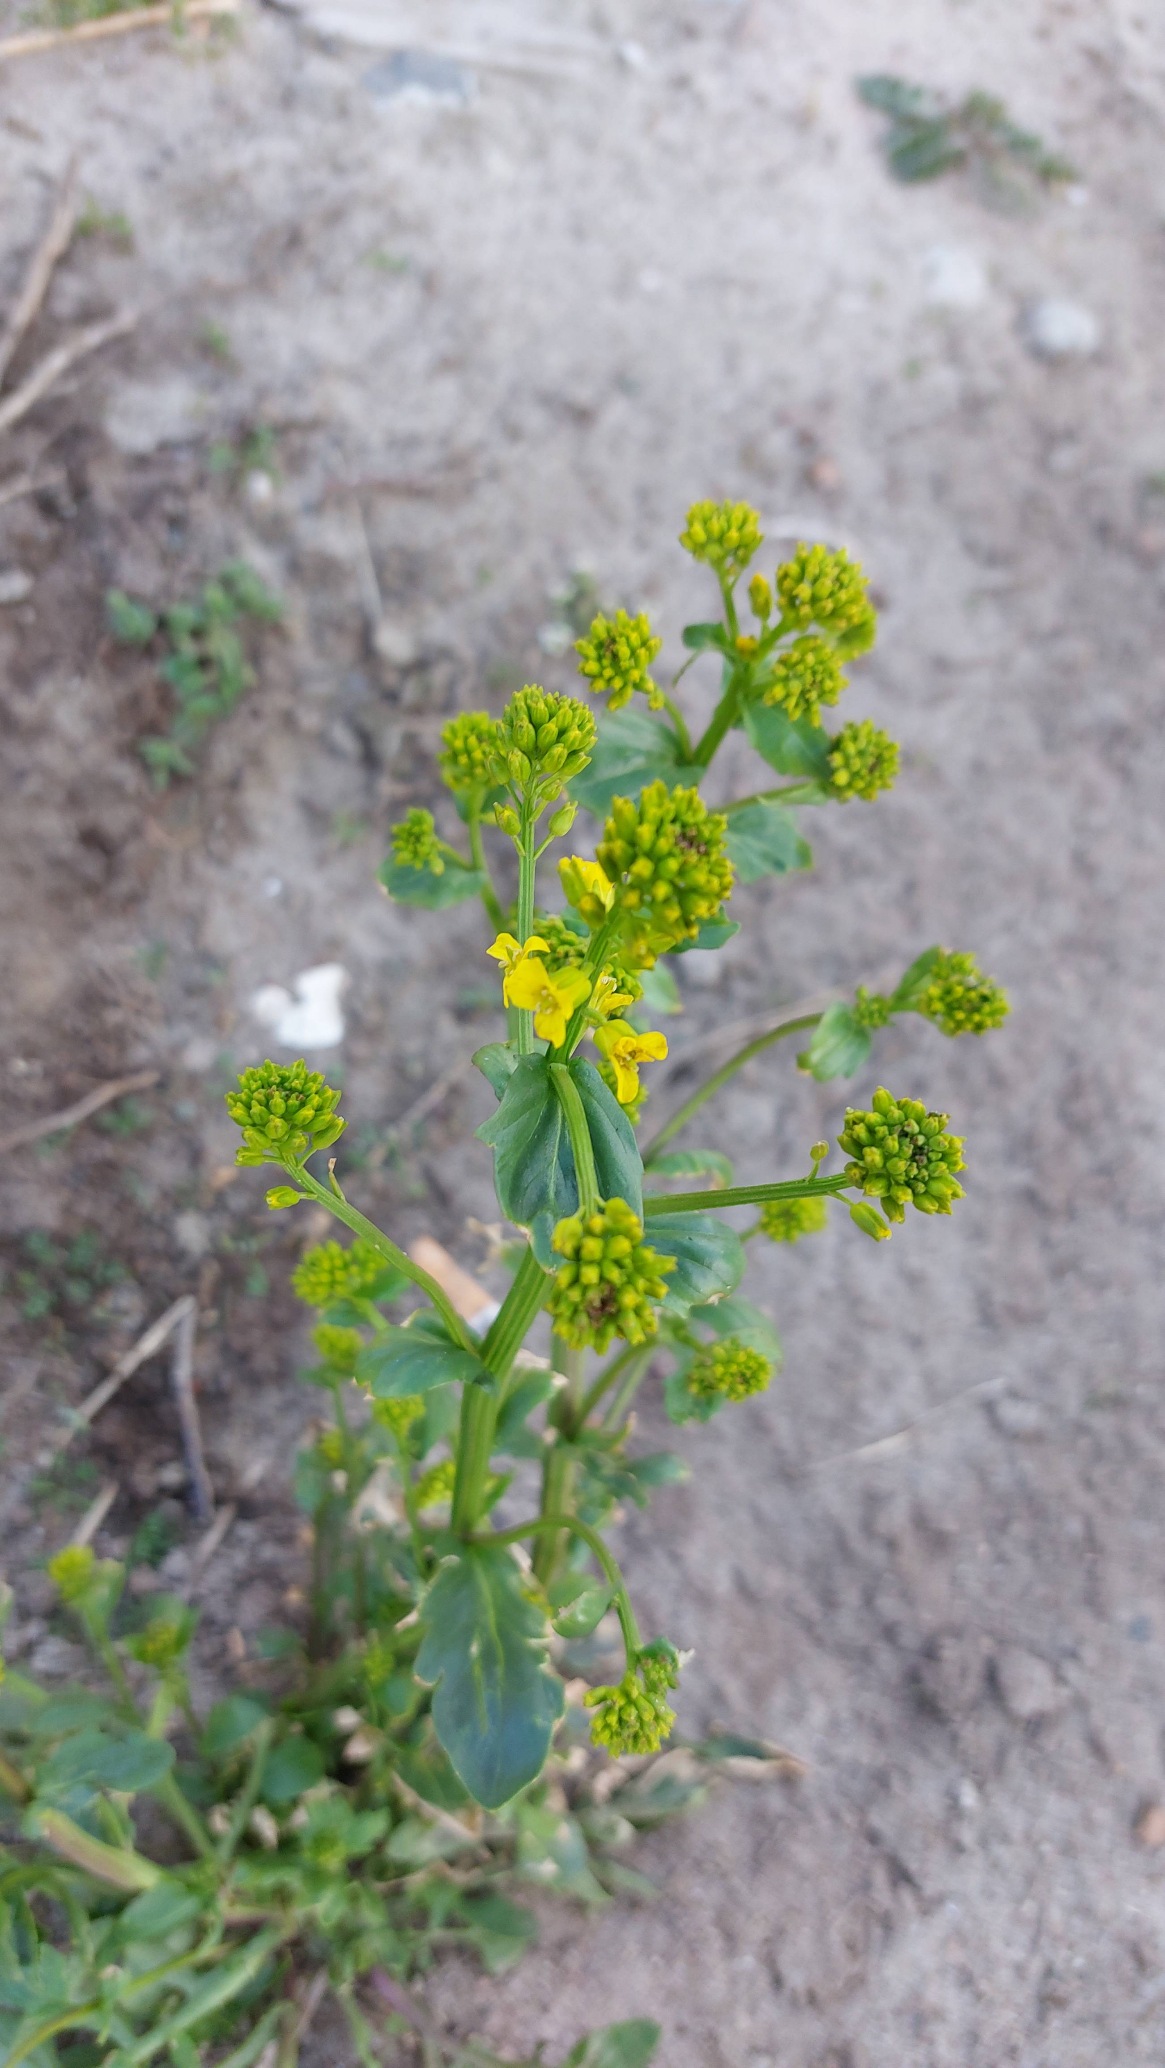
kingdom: Plantae
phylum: Tracheophyta
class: Magnoliopsida
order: Brassicales
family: Brassicaceae
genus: Barbarea
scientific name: Barbarea vulgaris
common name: Almindelig vinterkarse
